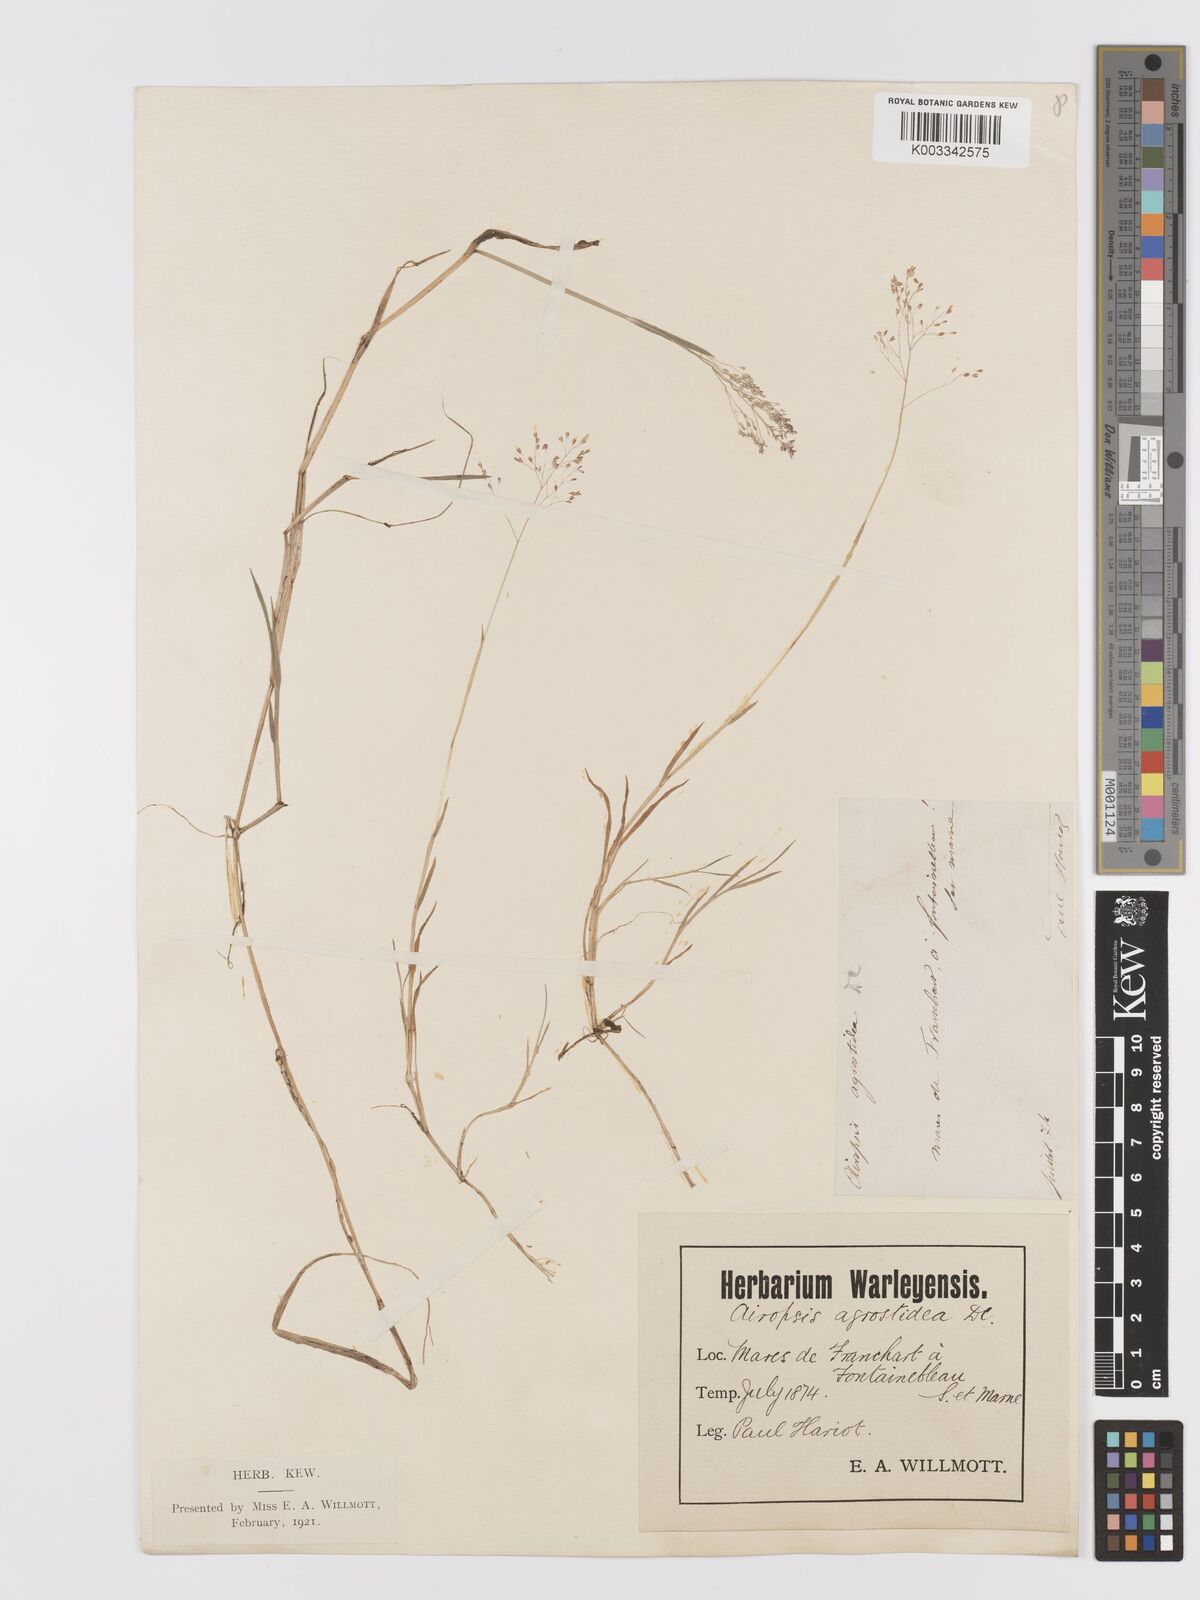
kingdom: Plantae
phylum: Tracheophyta
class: Liliopsida
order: Poales
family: Poaceae
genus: Agrostis
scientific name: Agrostis
